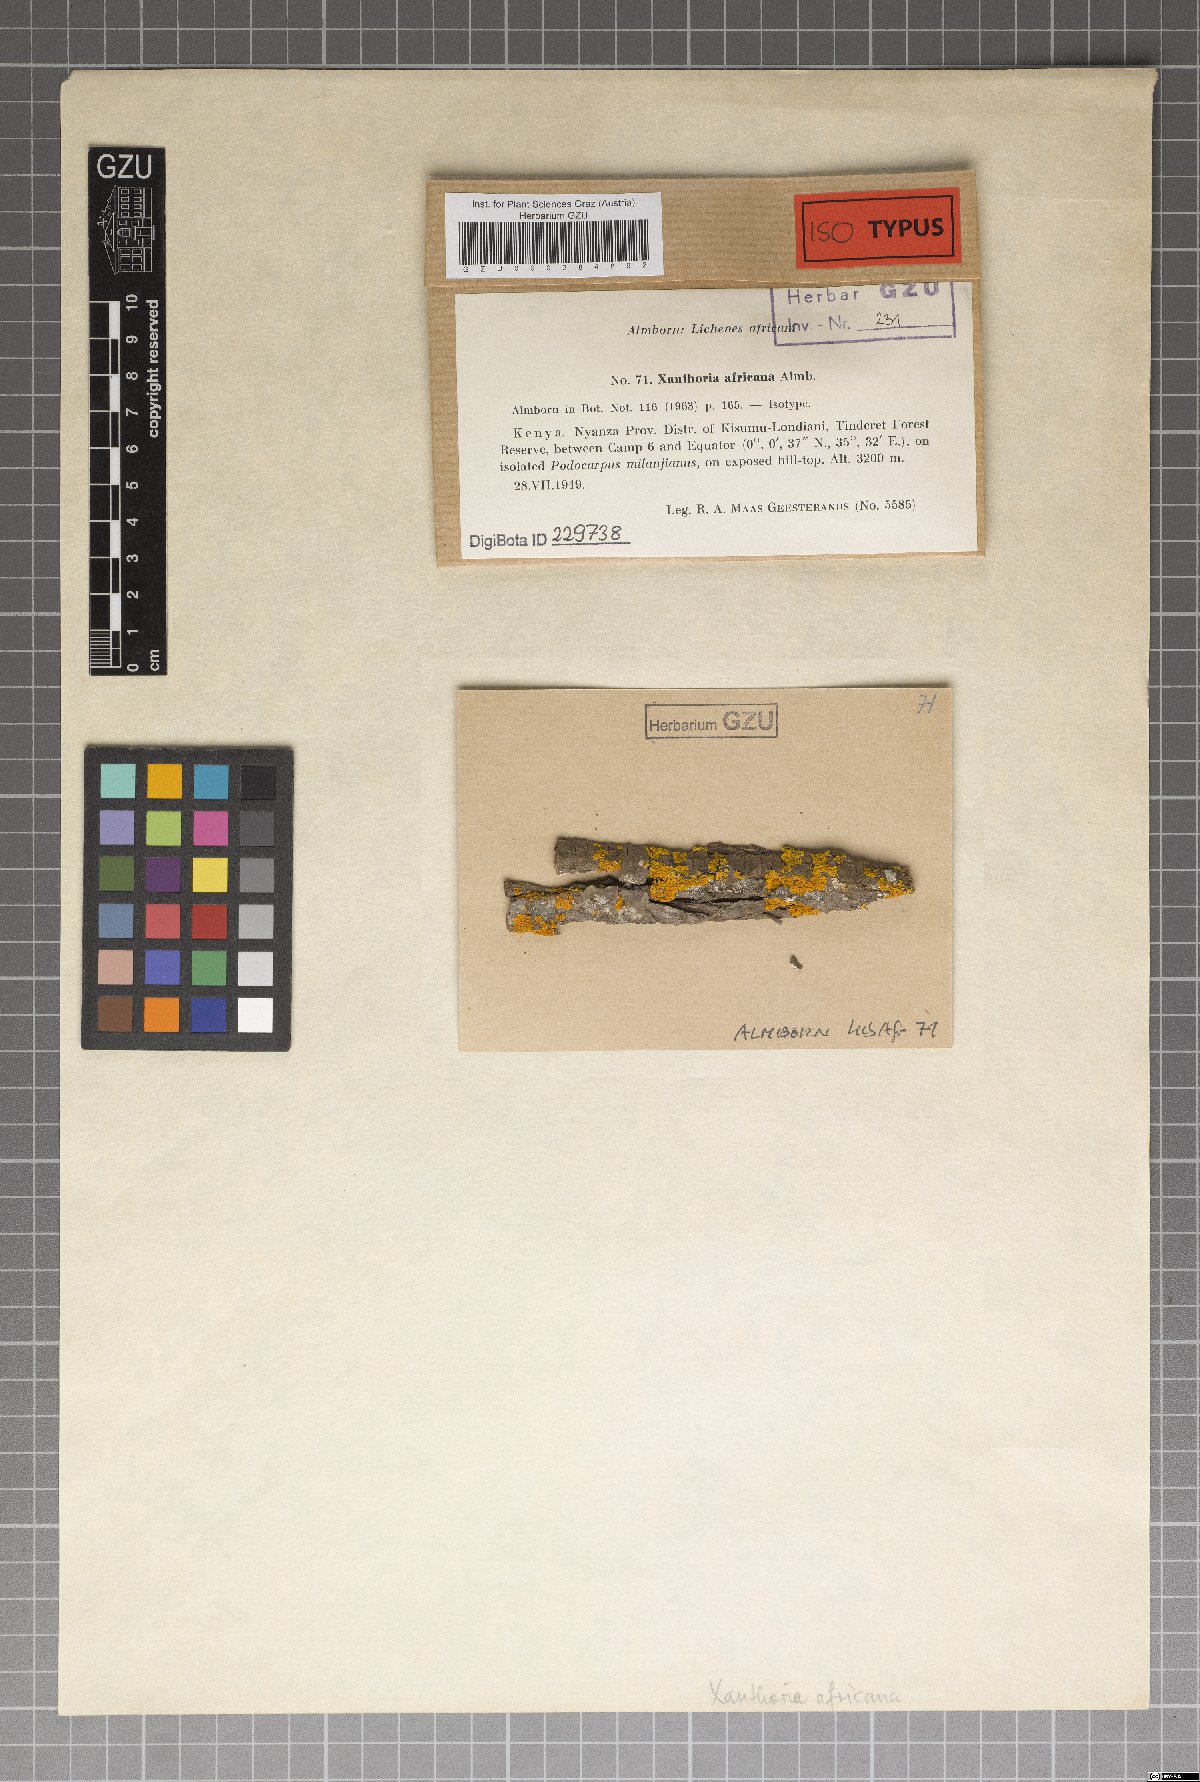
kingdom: Fungi
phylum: Ascomycota
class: Lecanoromycetes
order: Teloschistales
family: Teloschistaceae
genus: Dufourea
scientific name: Dufourea africana
